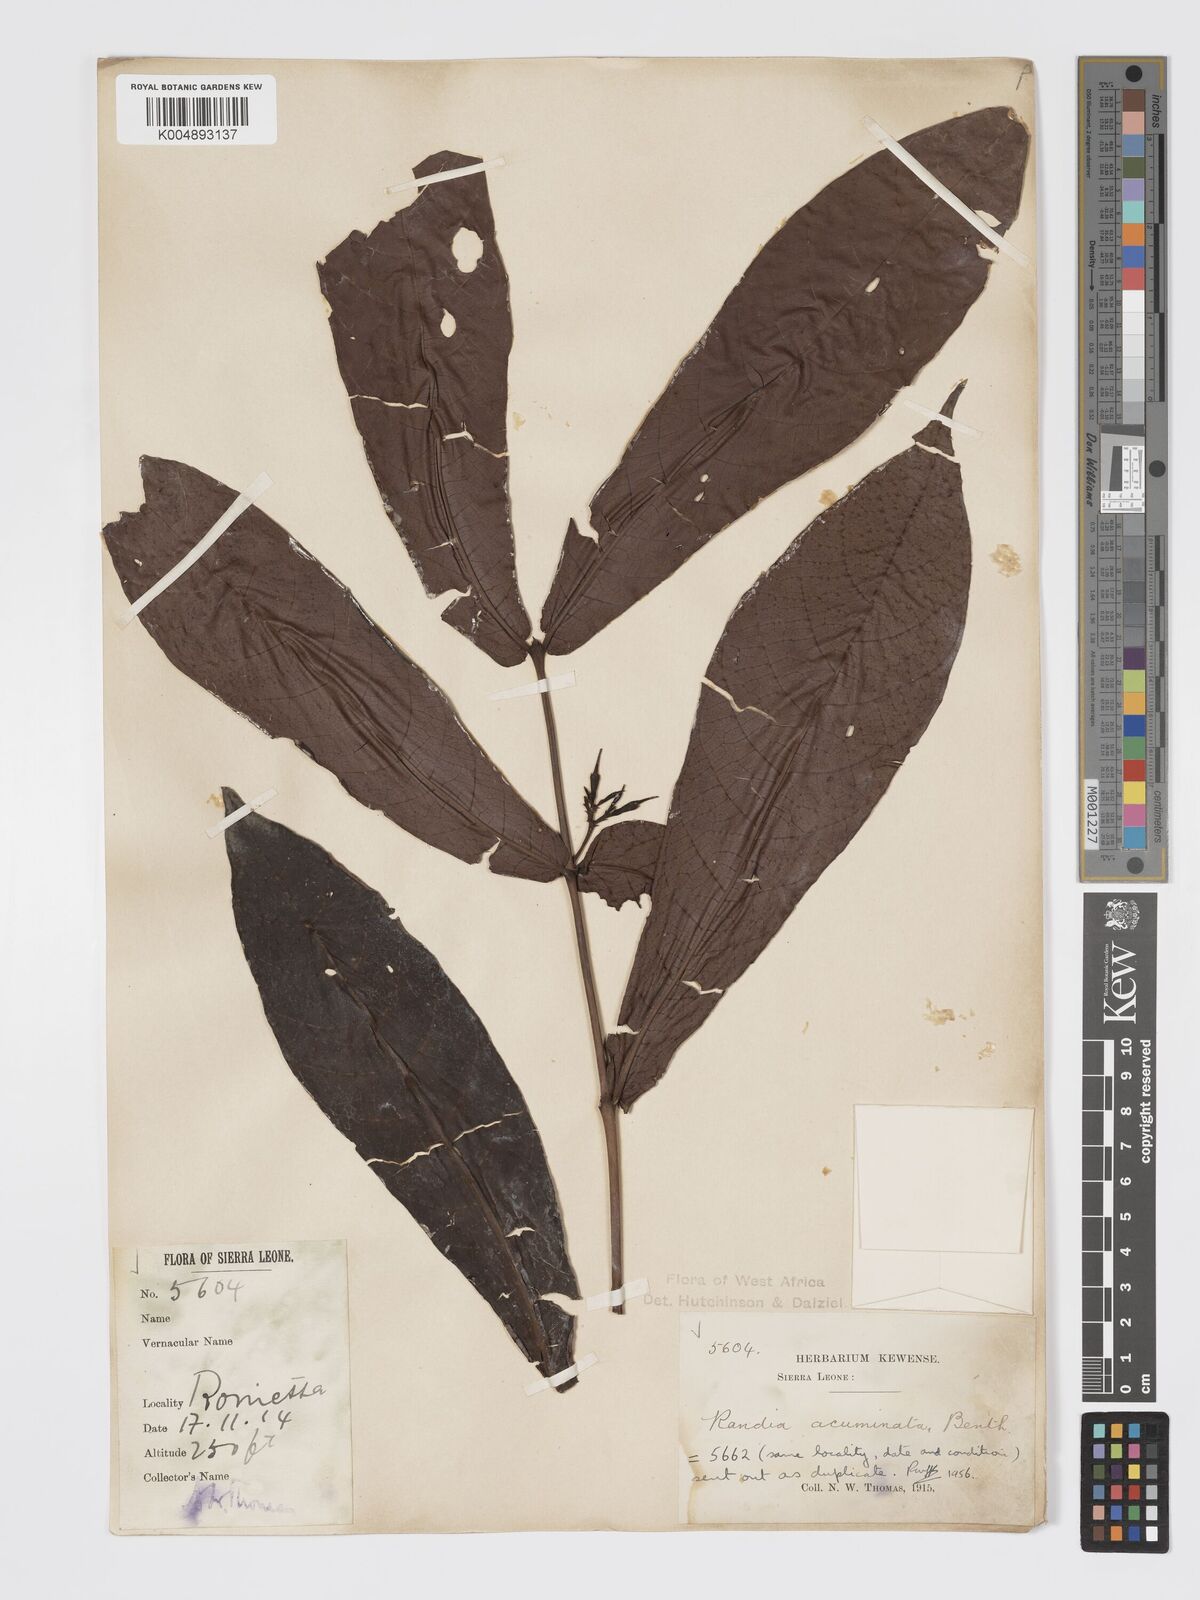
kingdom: Plantae
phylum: Tracheophyta
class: Magnoliopsida
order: Gentianales
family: Rubiaceae
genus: Massularia
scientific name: Massularia acuminata
